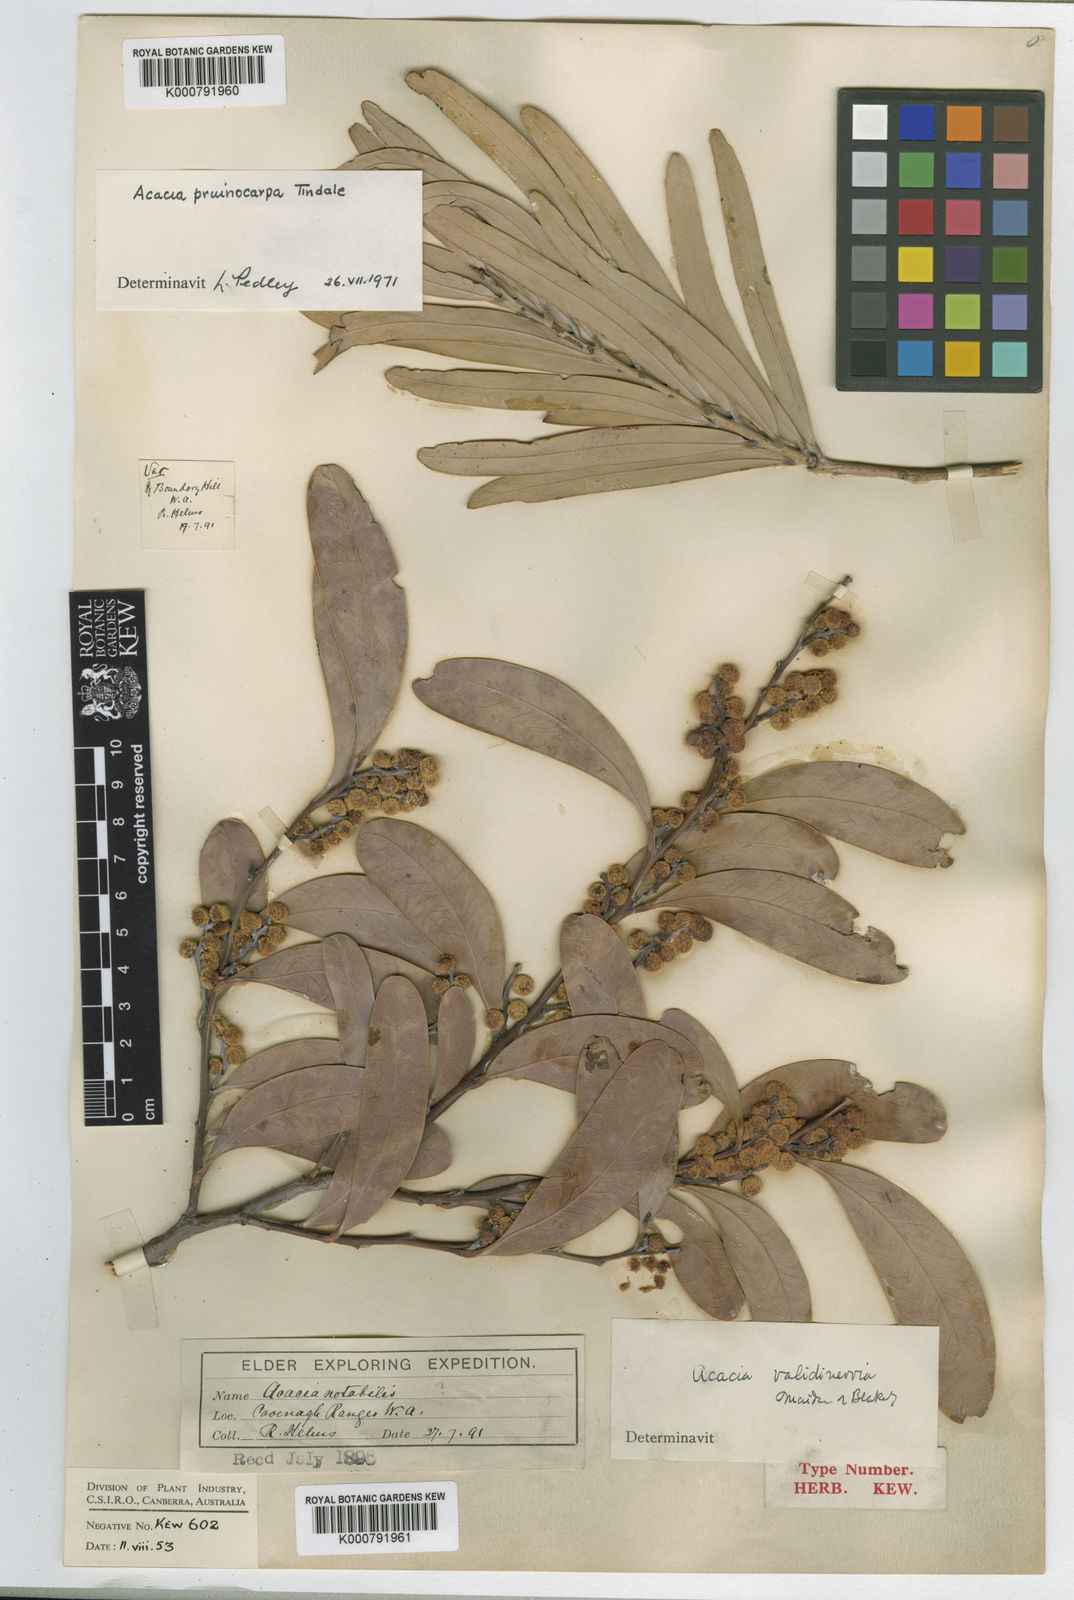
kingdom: Plantae
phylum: Tracheophyta
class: Magnoliopsida
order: Fabales
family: Fabaceae
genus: Acacia
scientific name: Acacia validinervia
